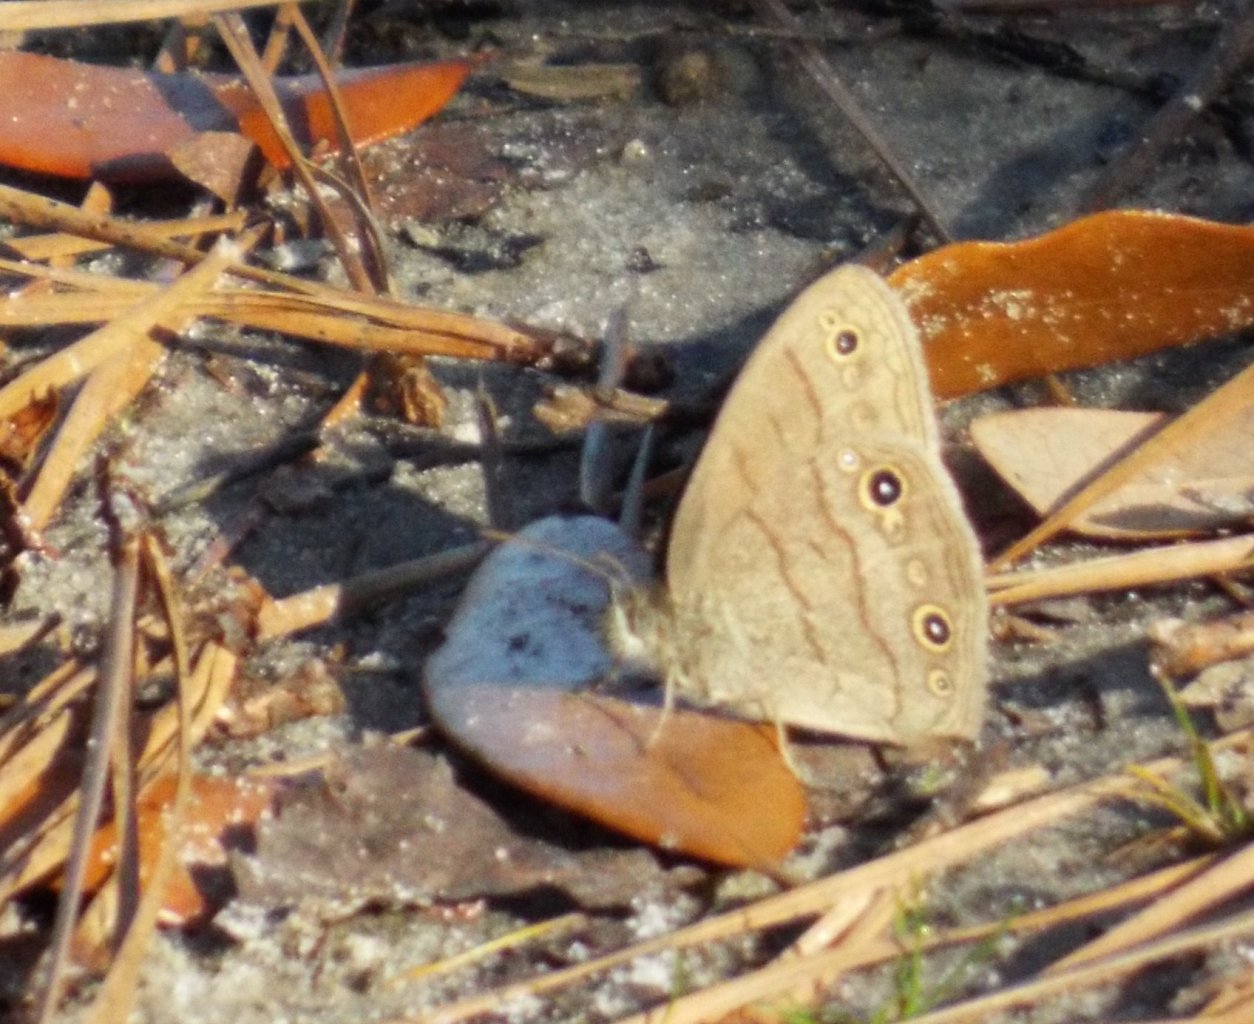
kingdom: Animalia
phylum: Arthropoda
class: Insecta
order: Lepidoptera
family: Nymphalidae
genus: Hermeuptychia
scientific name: Hermeuptychia hermes
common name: Carolina Satyr
